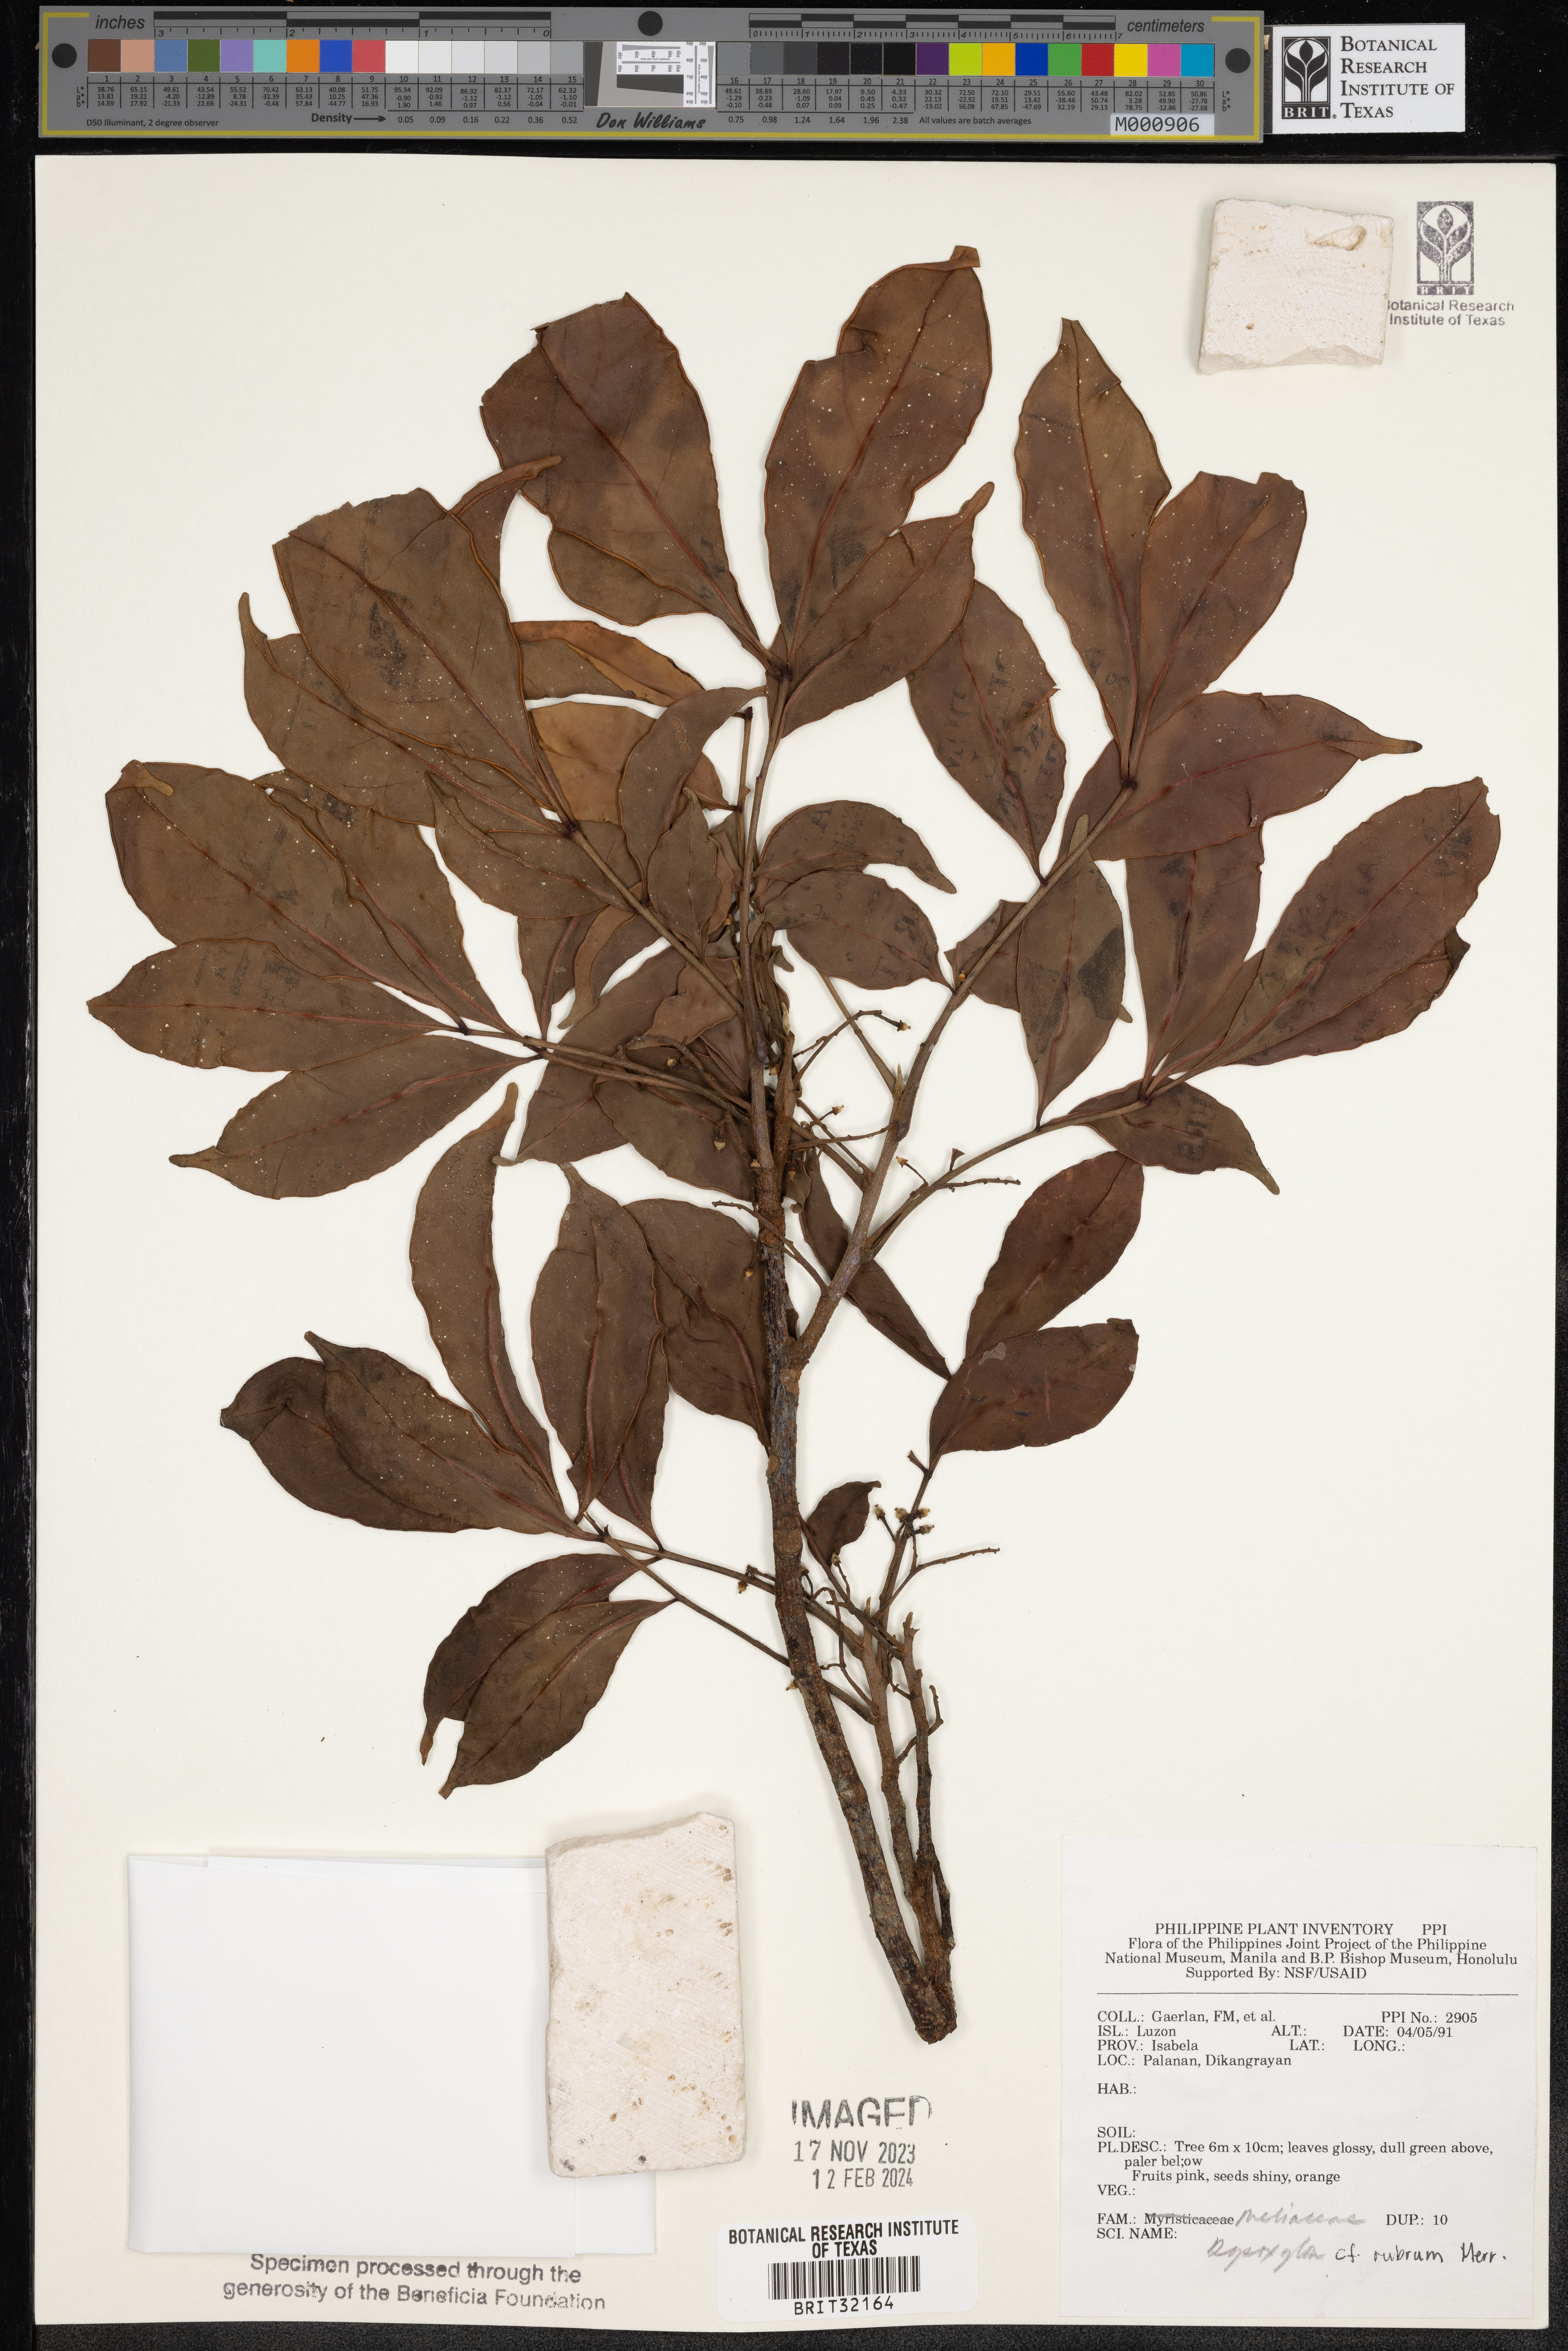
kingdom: Plantae
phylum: Tracheophyta
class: Magnoliopsida
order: Sapindales
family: Meliaceae
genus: Goniocheton
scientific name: Goniocheton arborescens
